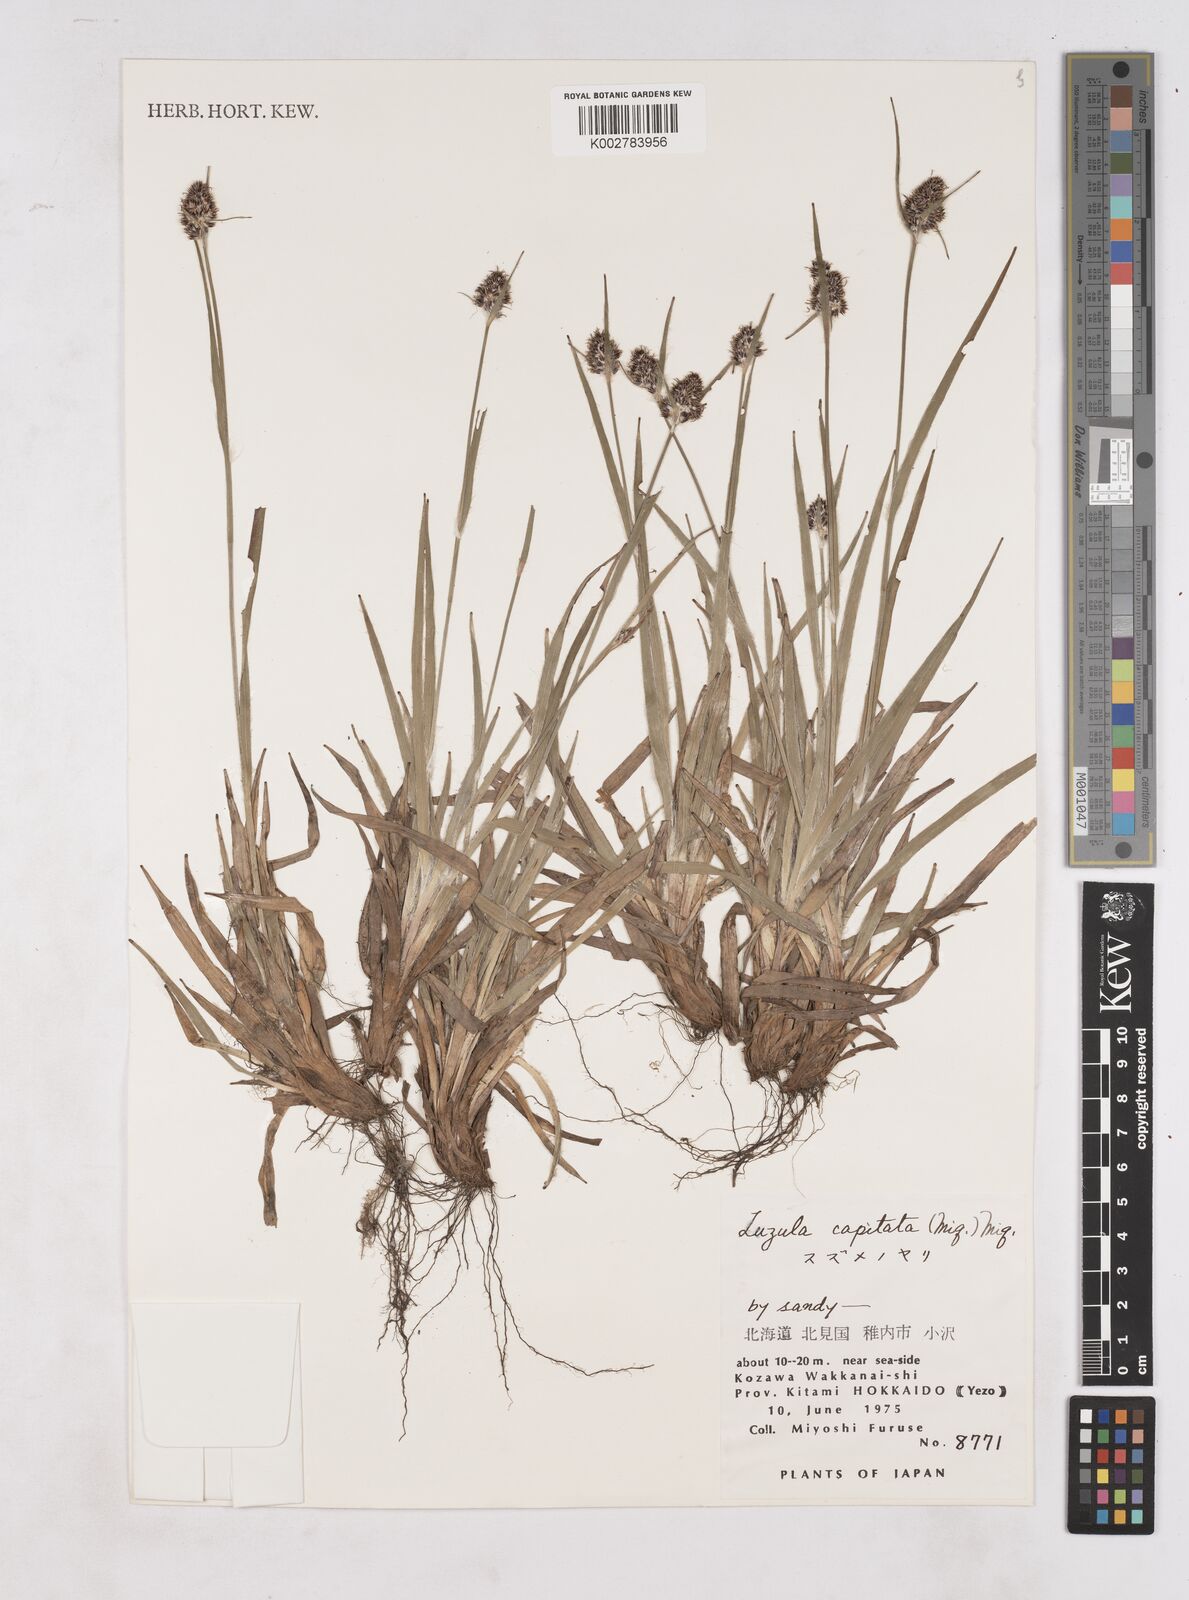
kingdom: Plantae
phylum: Tracheophyta
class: Liliopsida
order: Poales
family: Juncaceae
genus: Luzula
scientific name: Luzula capitata
